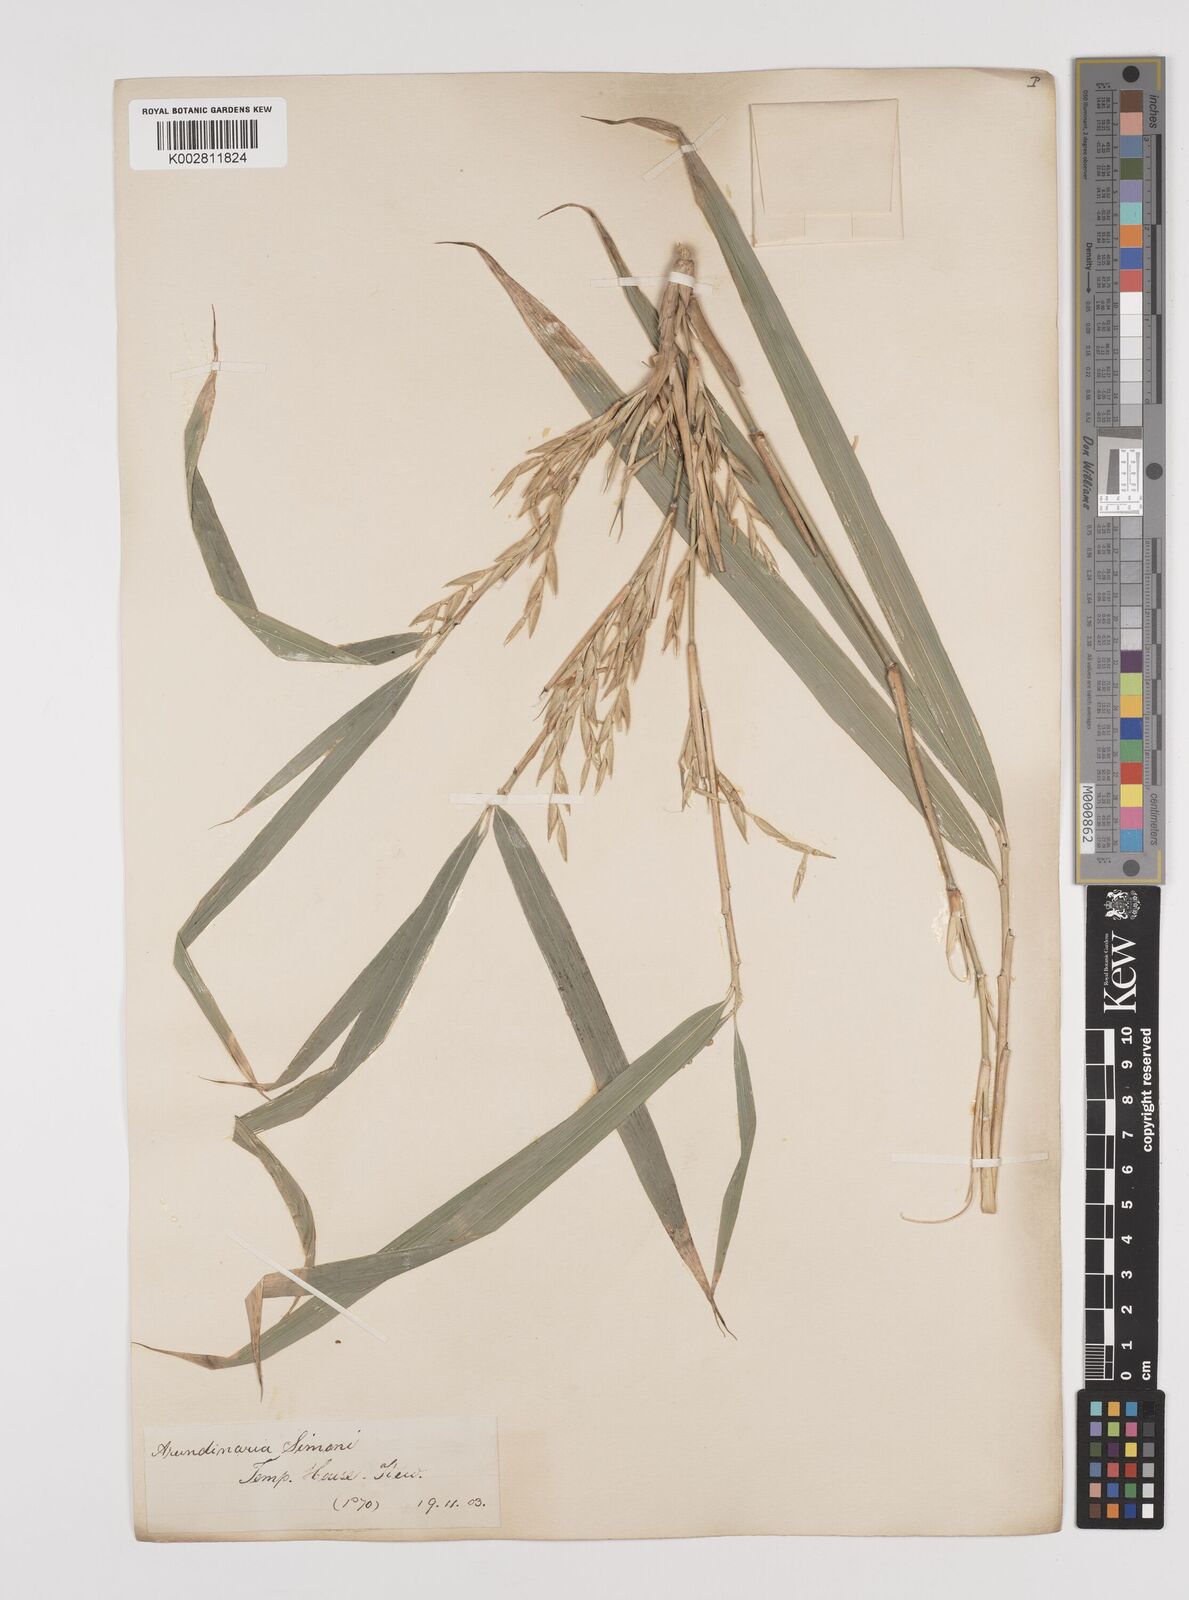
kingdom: Plantae
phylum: Tracheophyta
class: Liliopsida
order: Poales
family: Poaceae
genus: Pleioblastus
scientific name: Pleioblastus simonii
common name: Simon bamboo
